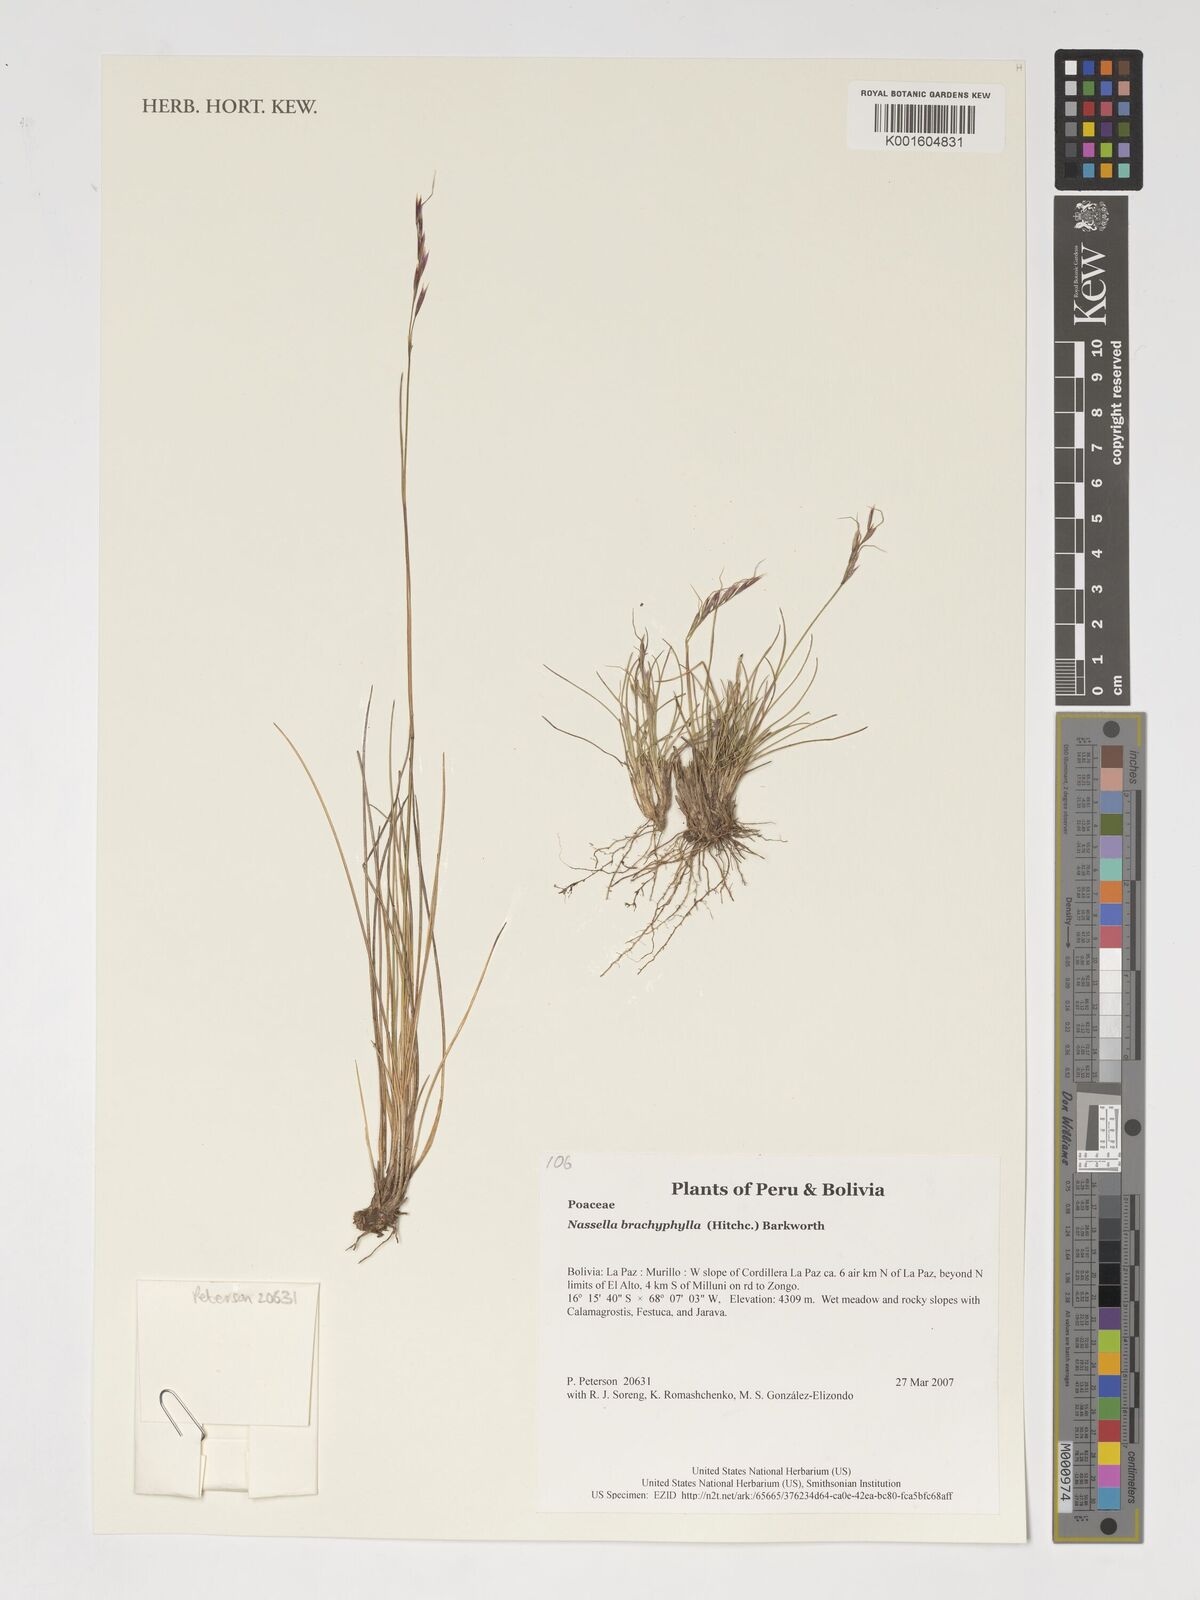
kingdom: Plantae
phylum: Tracheophyta
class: Liliopsida
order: Poales
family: Poaceae
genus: Nassella
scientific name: Nassella brachyphylla
